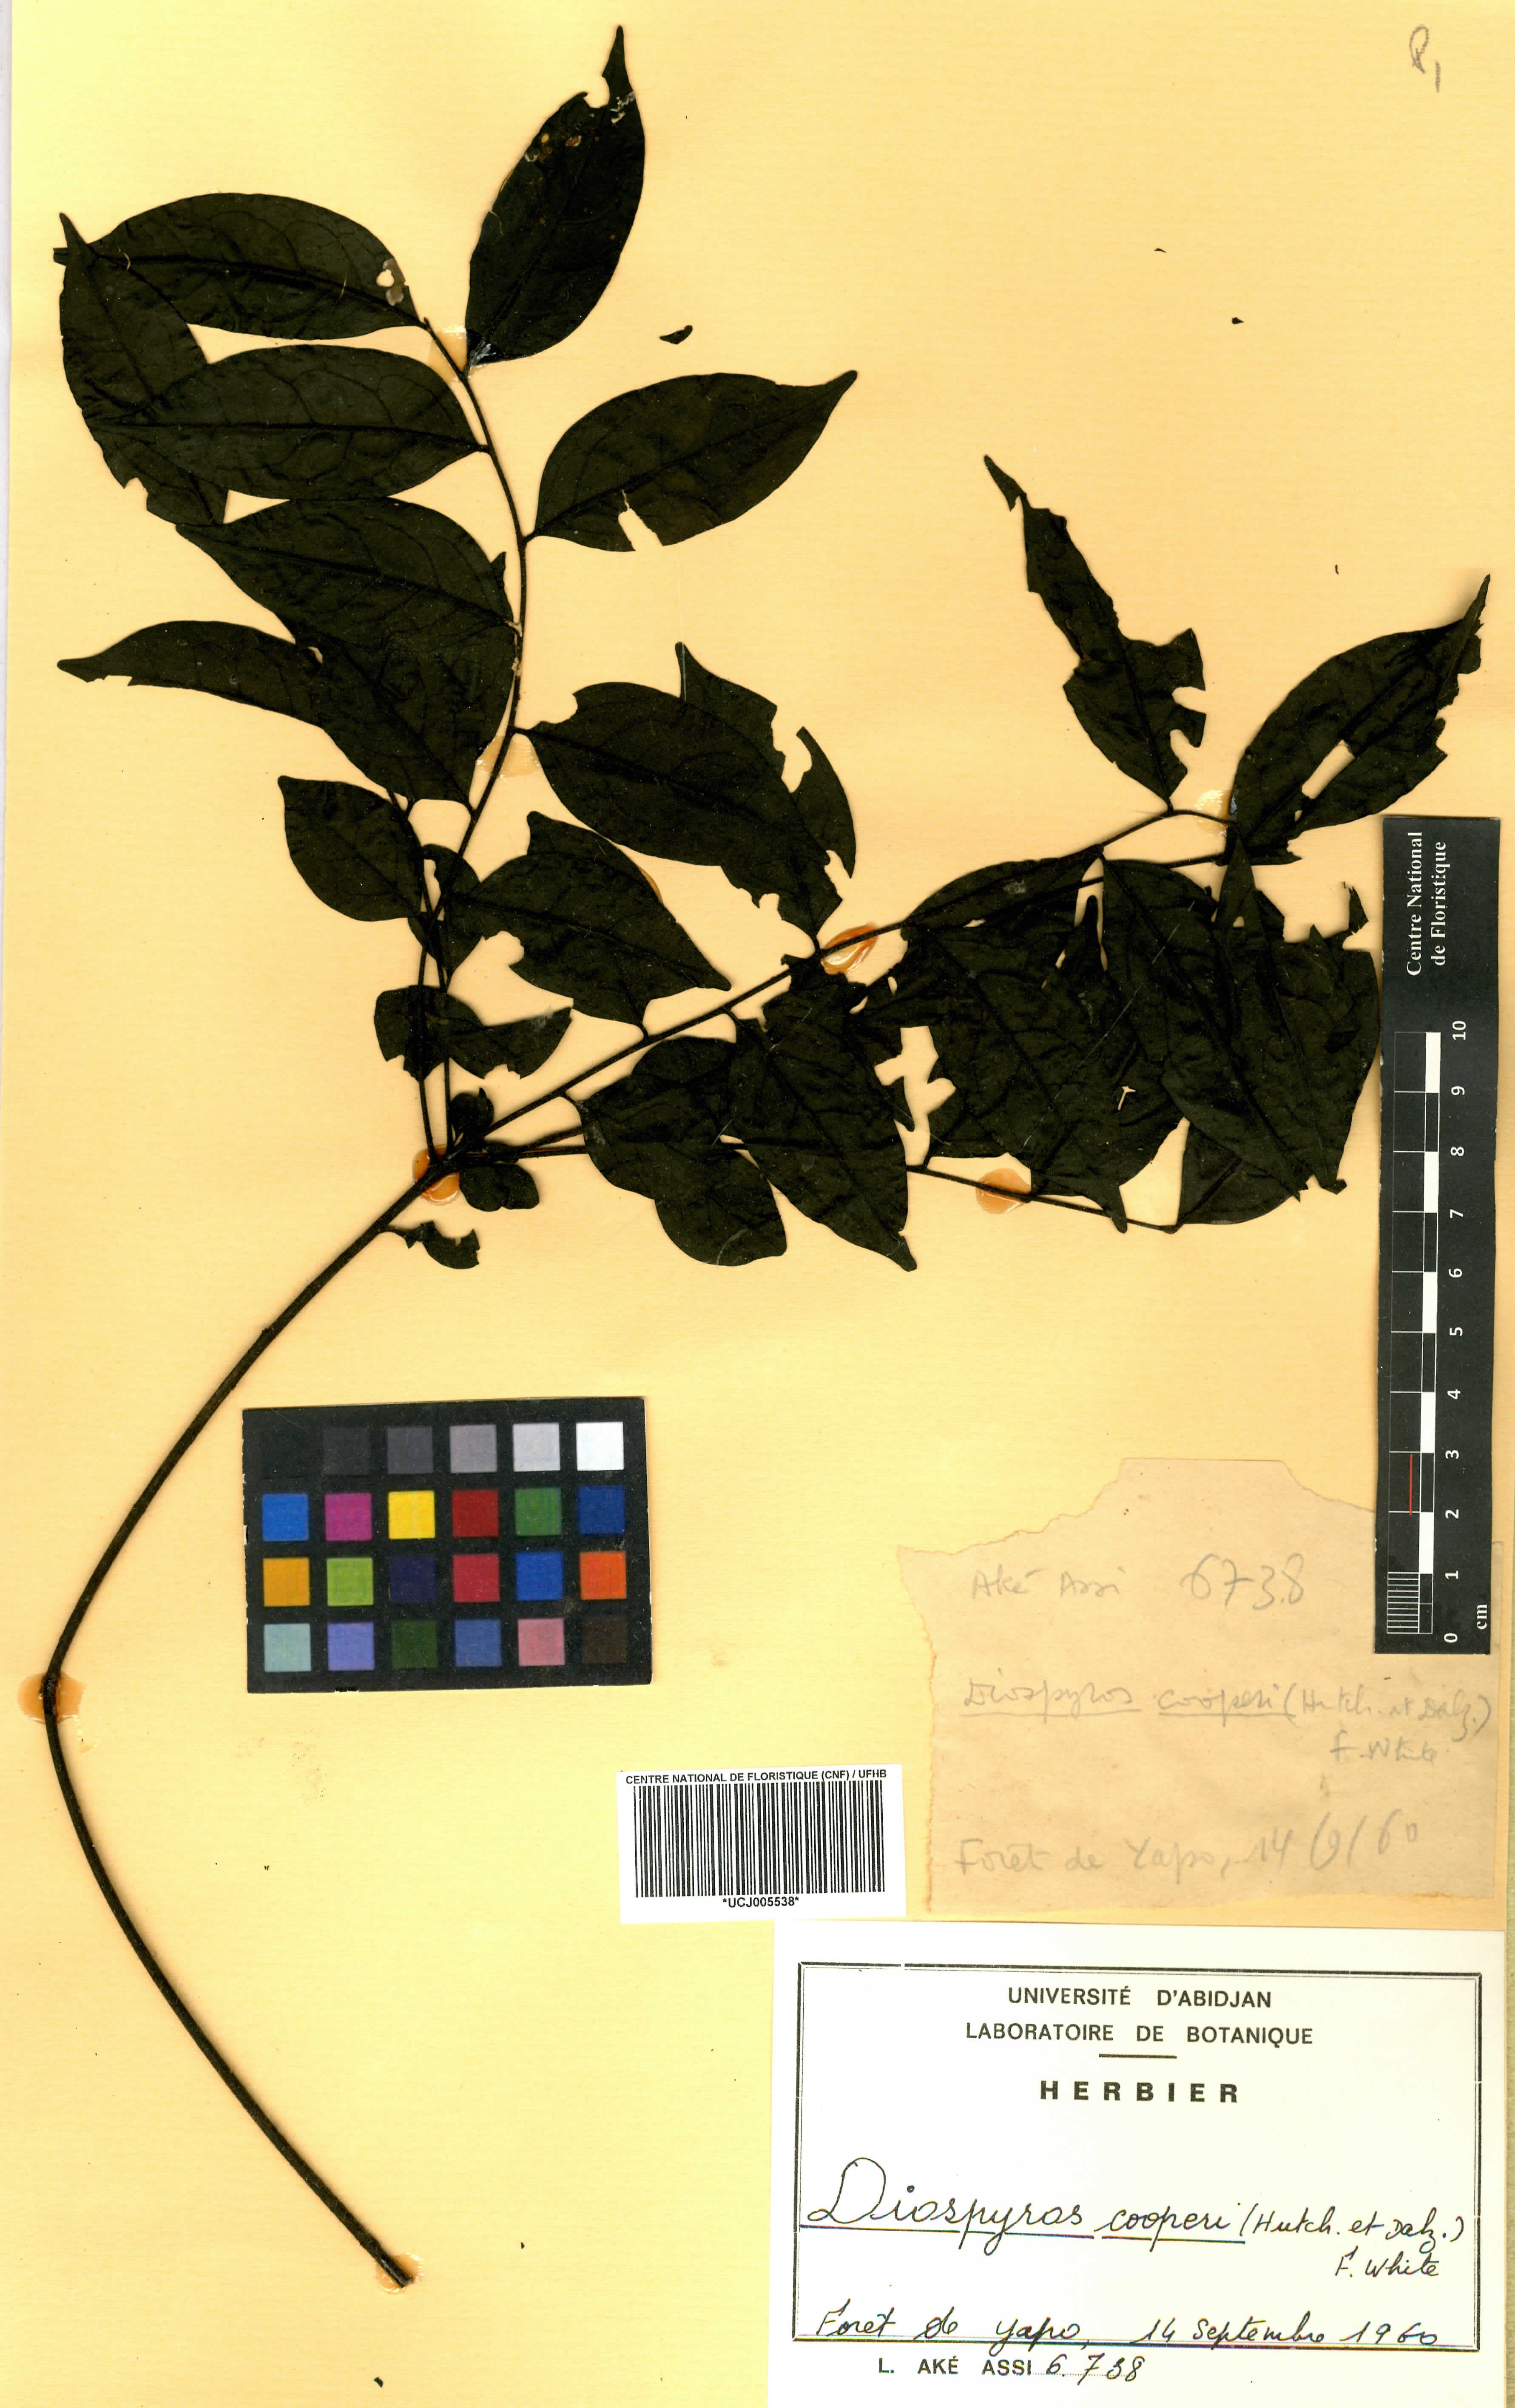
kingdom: Plantae
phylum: Tracheophyta
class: Magnoliopsida
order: Ericales
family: Ebenaceae
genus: Diospyros
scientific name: Diospyros cooperi
